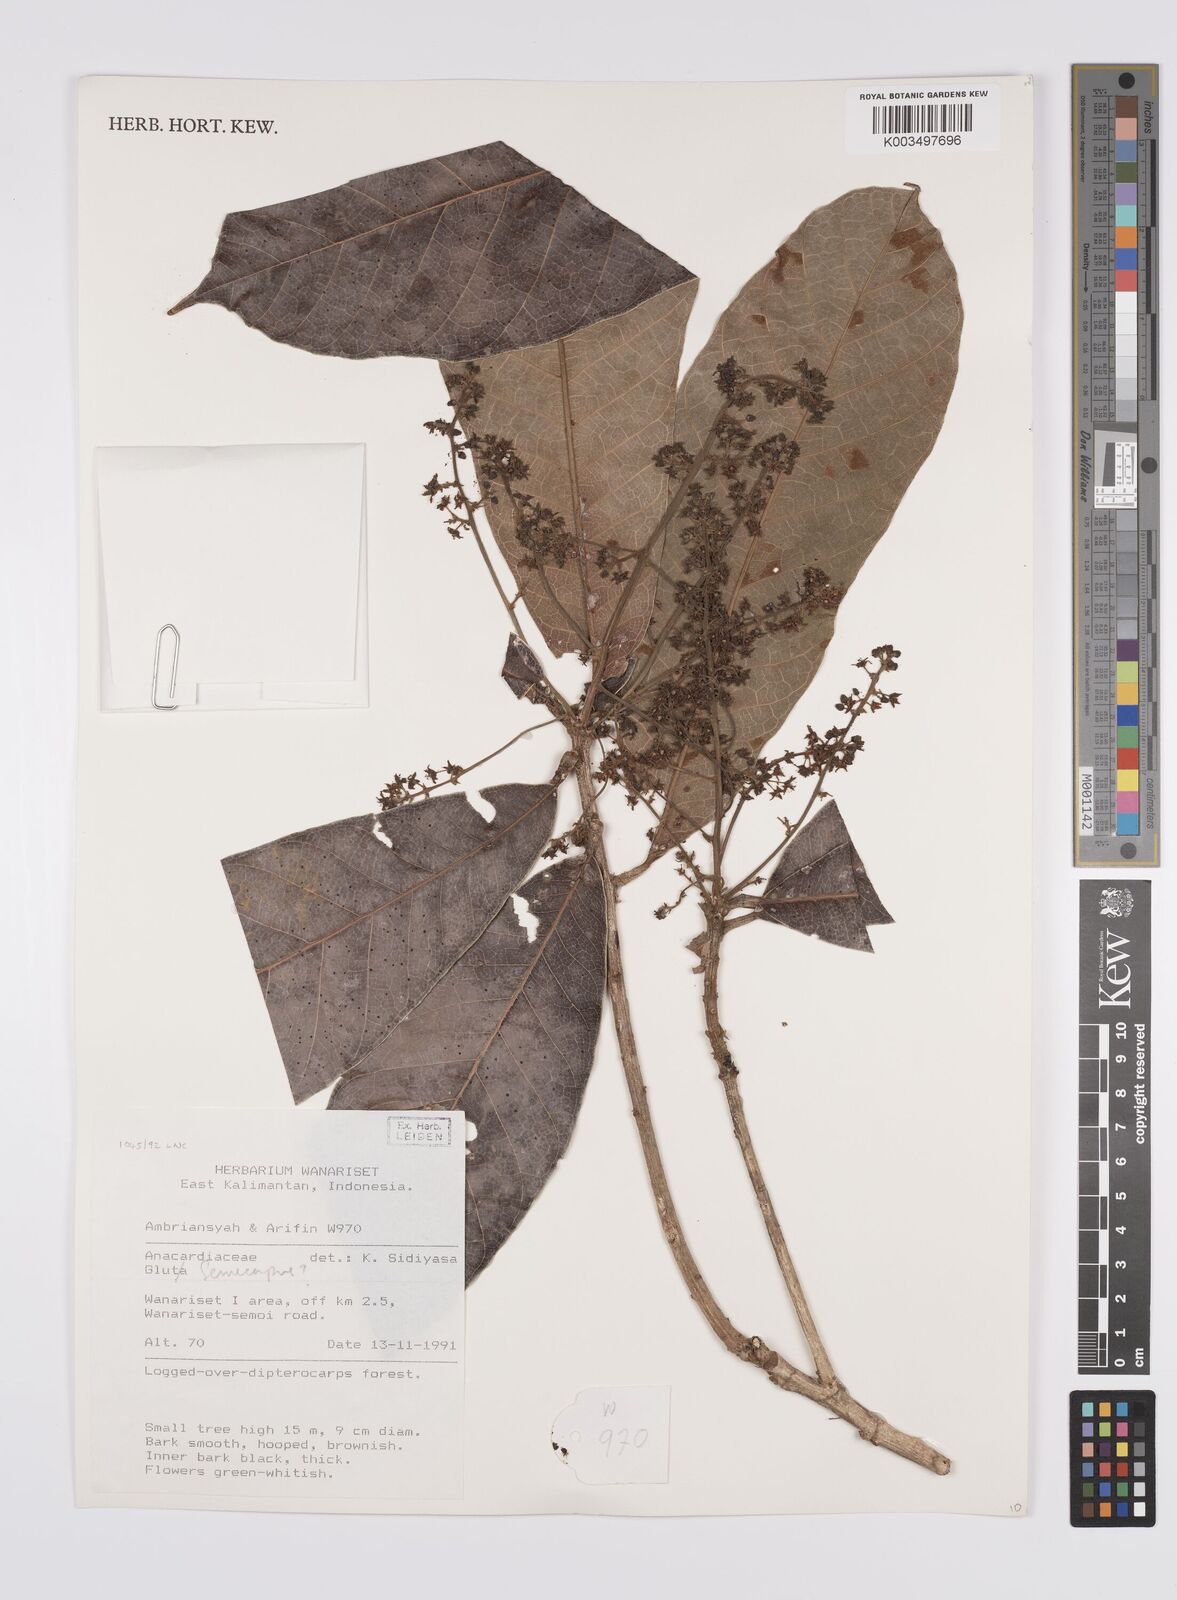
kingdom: Plantae
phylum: Tracheophyta
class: Magnoliopsida
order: Sapindales
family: Anacardiaceae
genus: Semecarpus
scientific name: Semecarpus
